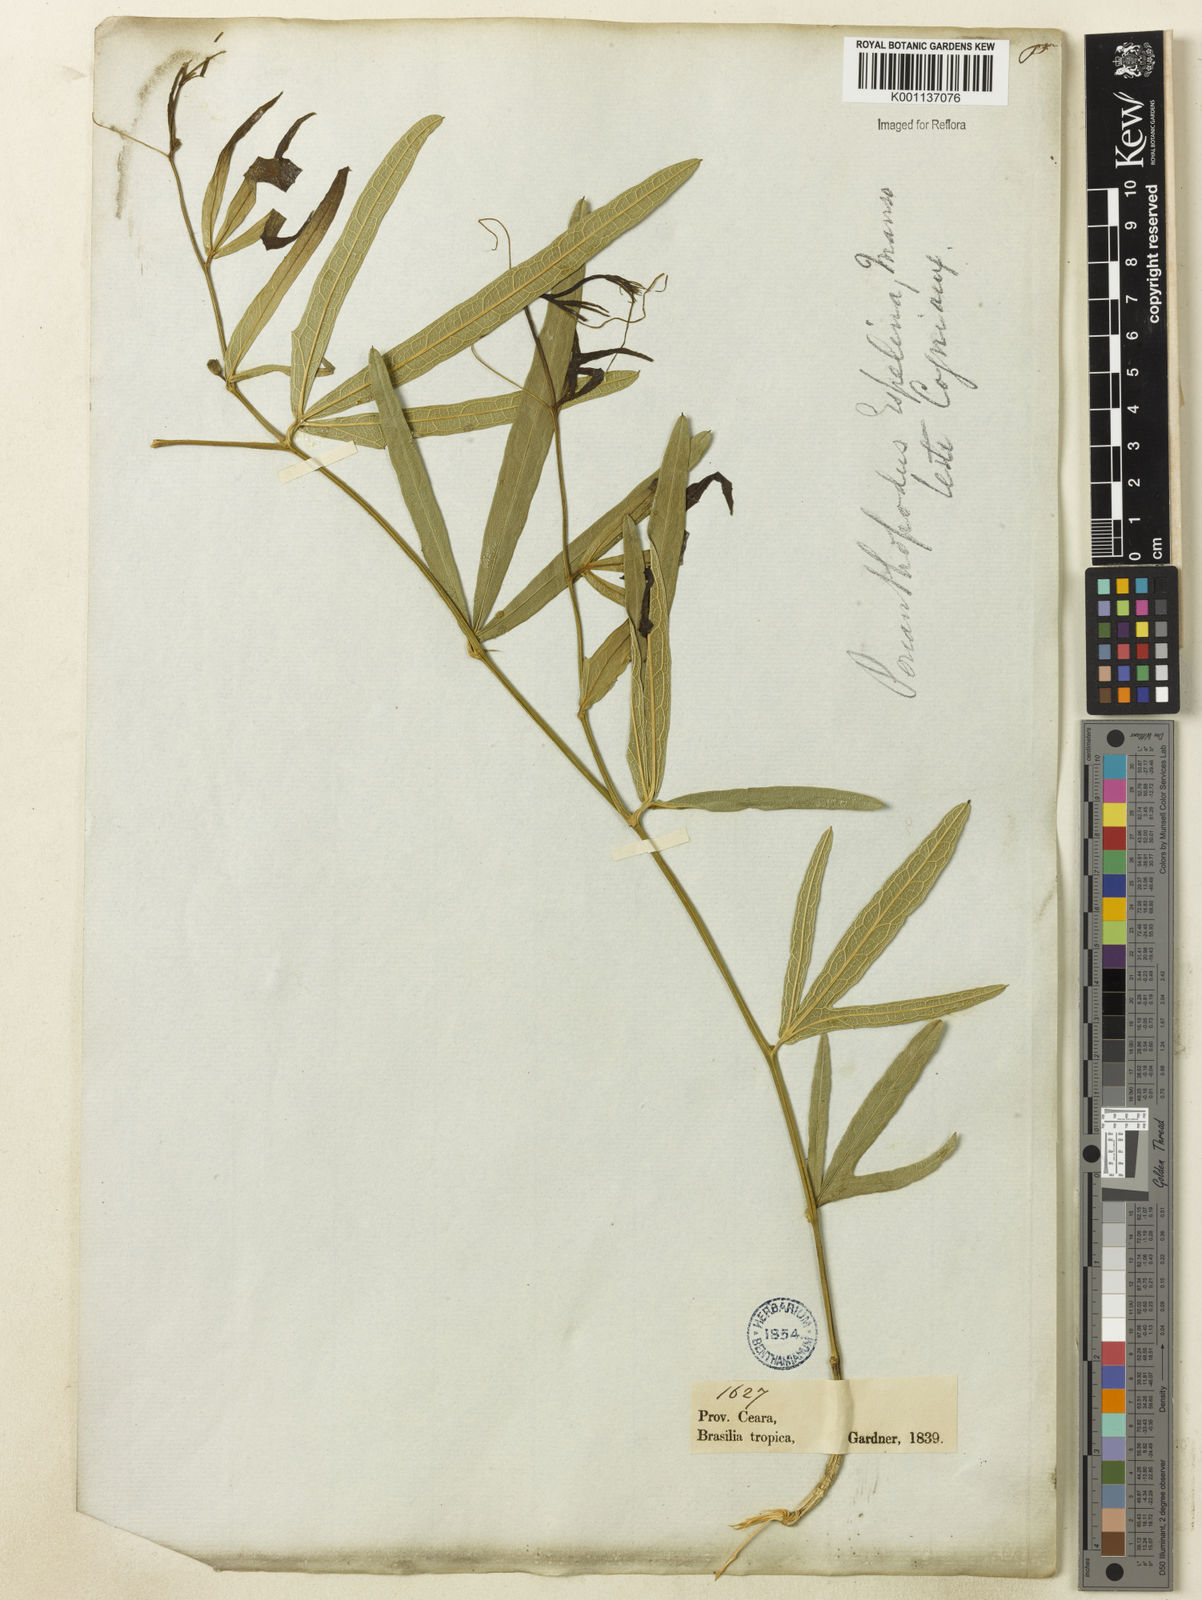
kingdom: Plantae
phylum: Tracheophyta
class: Magnoliopsida
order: Cucurbitales
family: Cucurbitaceae
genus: Cayaponia
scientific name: Cayaponia espelina
